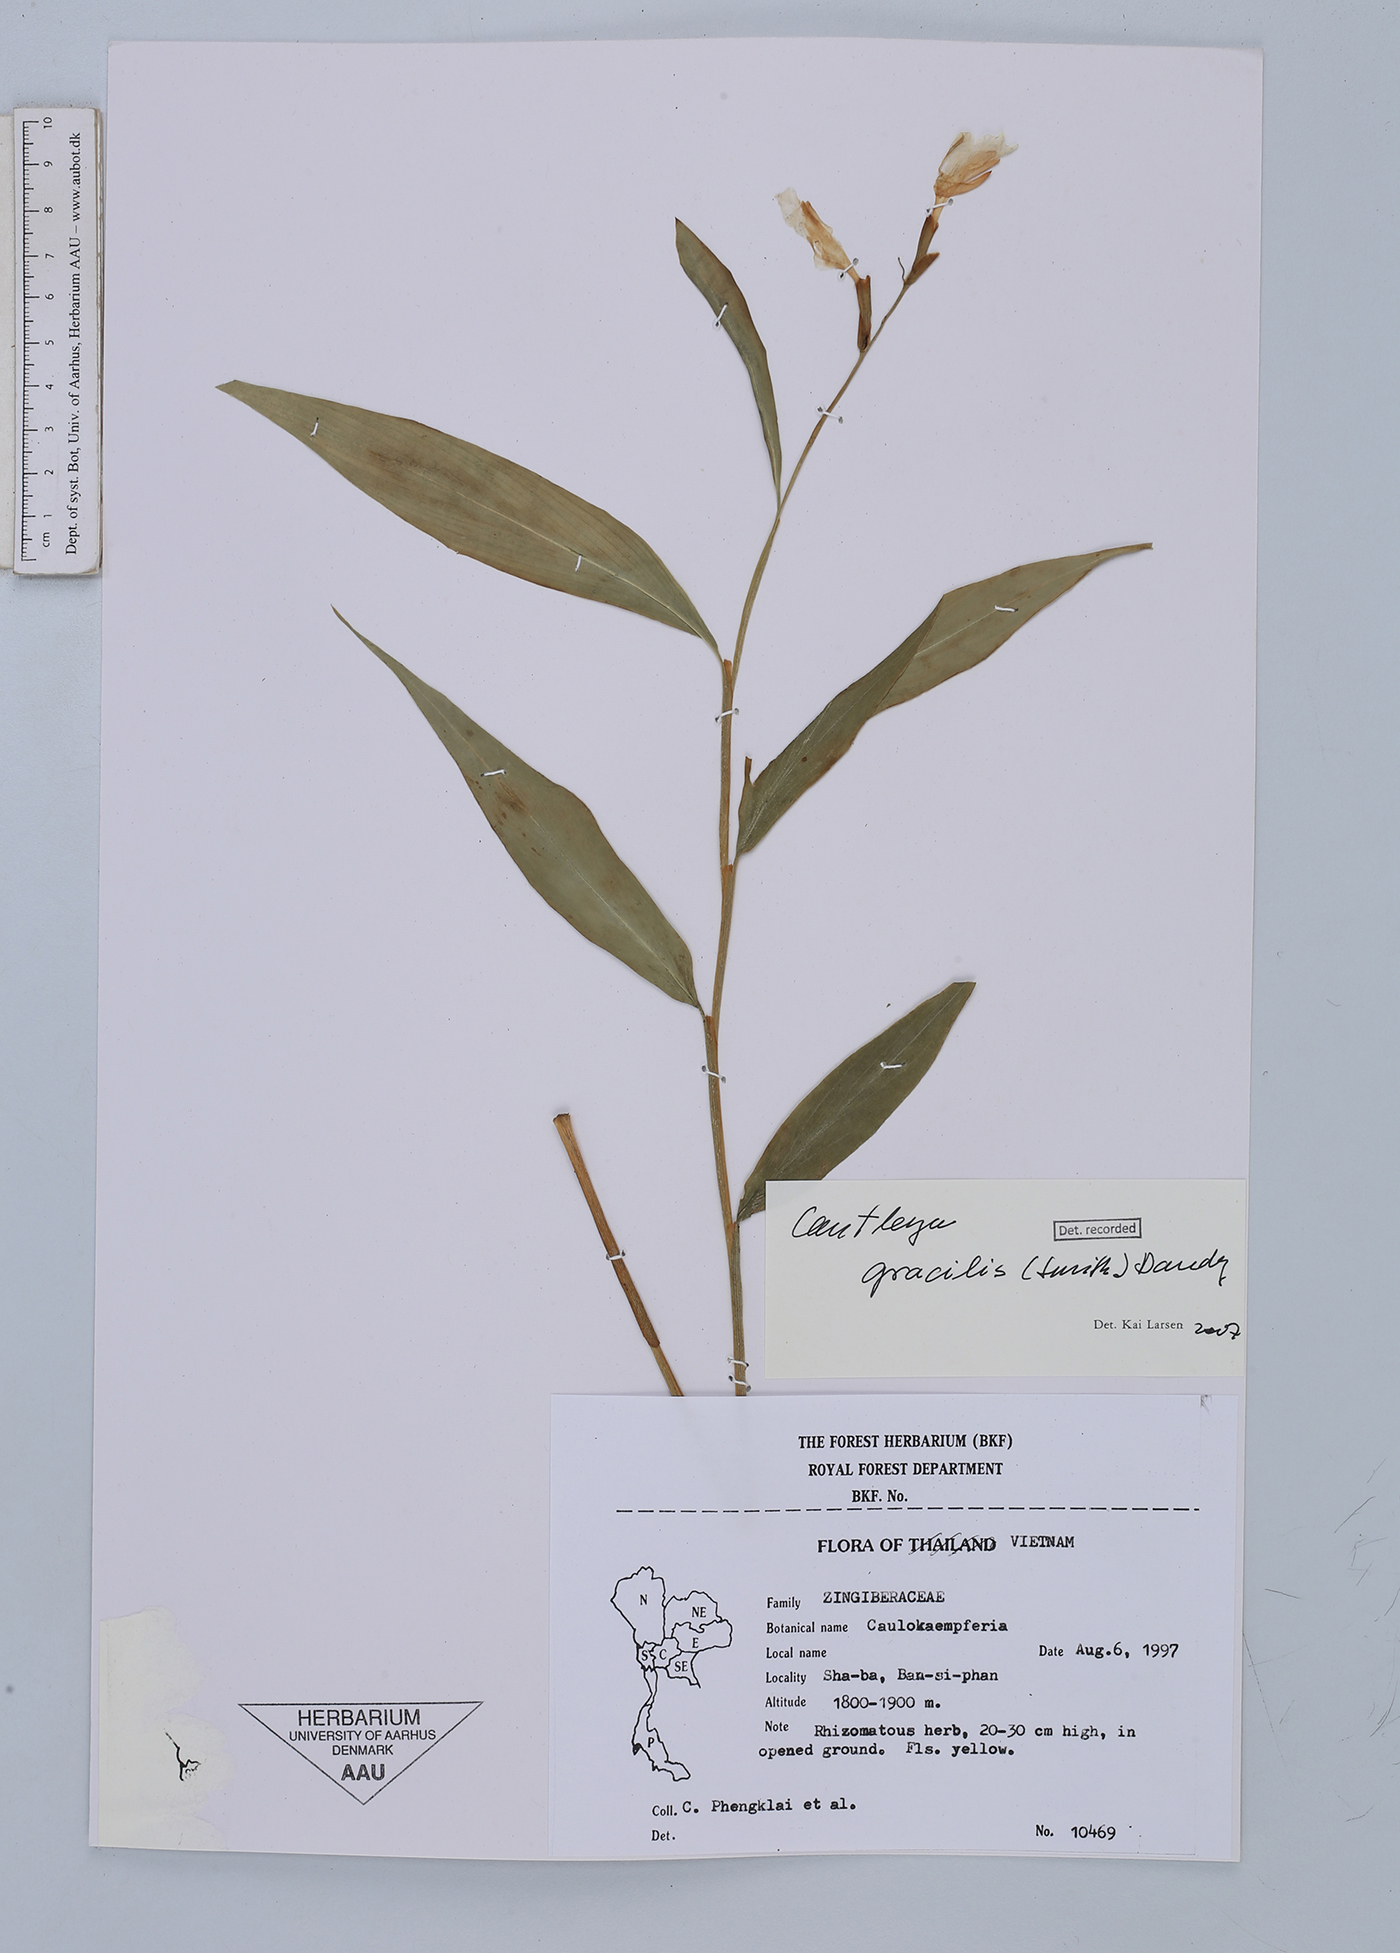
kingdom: Plantae
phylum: Tracheophyta
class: Liliopsida
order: Zingiberales
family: Zingiberaceae
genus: Cautleya
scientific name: Cautleya gracilis
